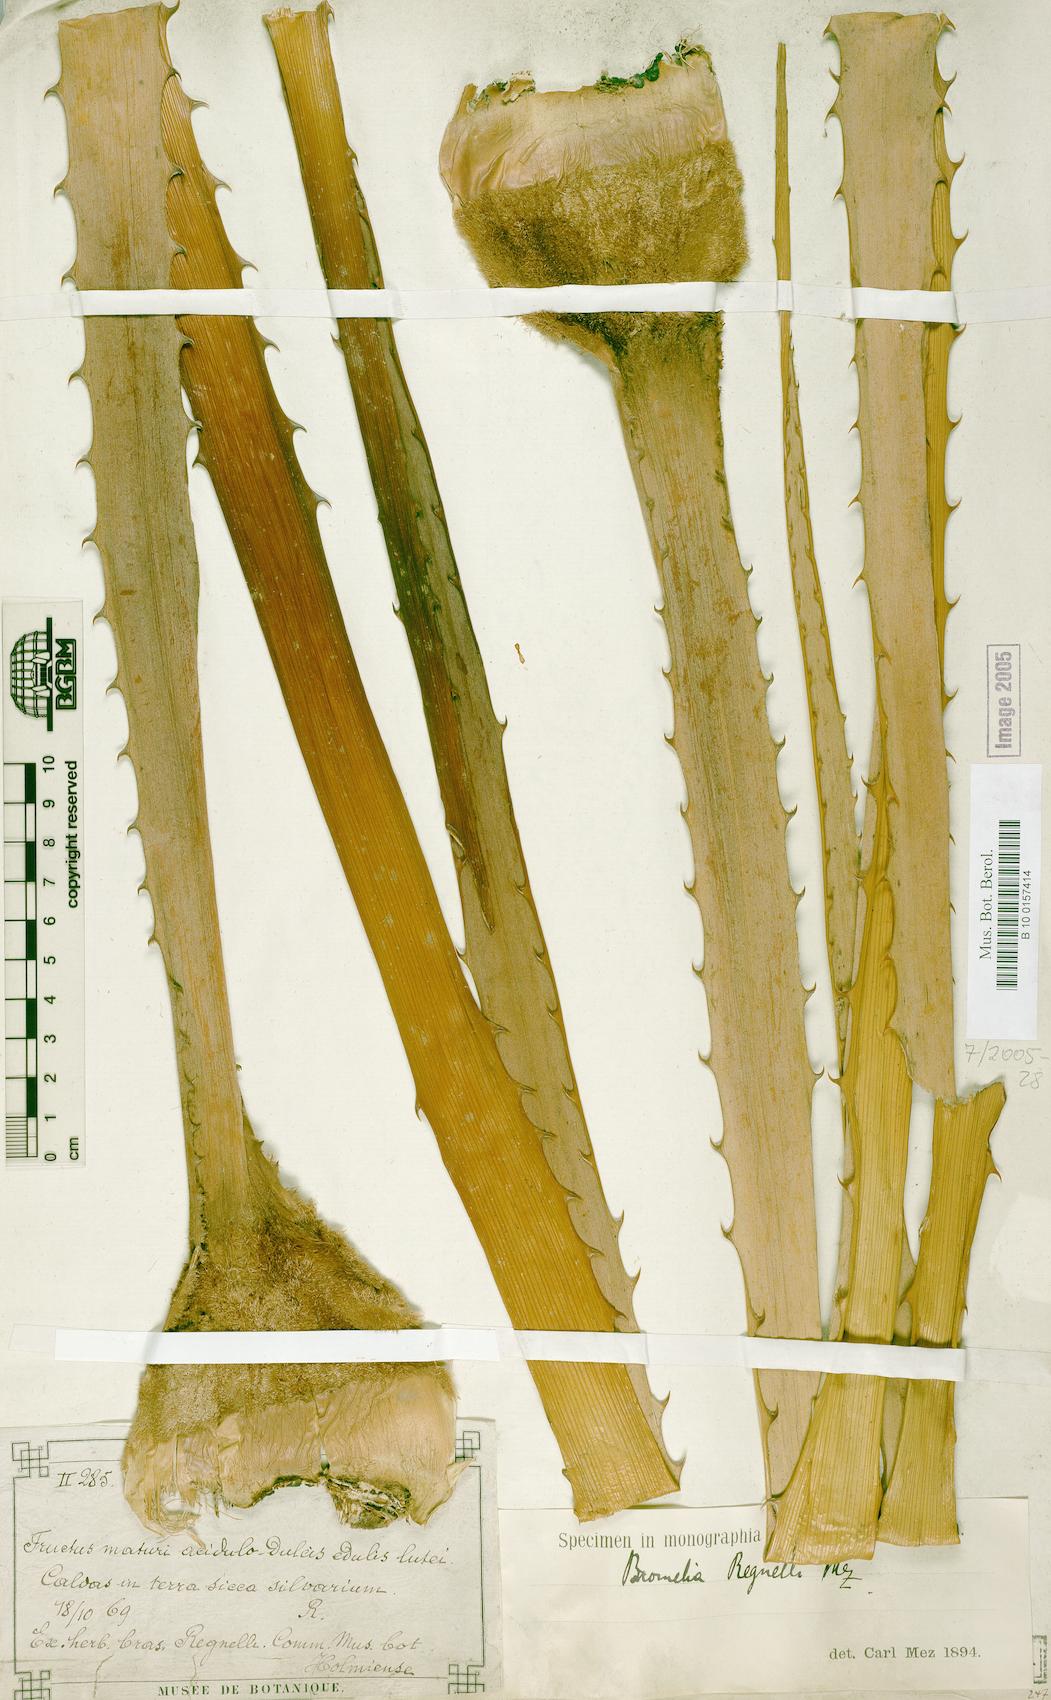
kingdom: Plantae
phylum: Tracheophyta
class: Liliopsida
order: Poales
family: Bromeliaceae
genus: Bromelia
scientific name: Bromelia regnellii
